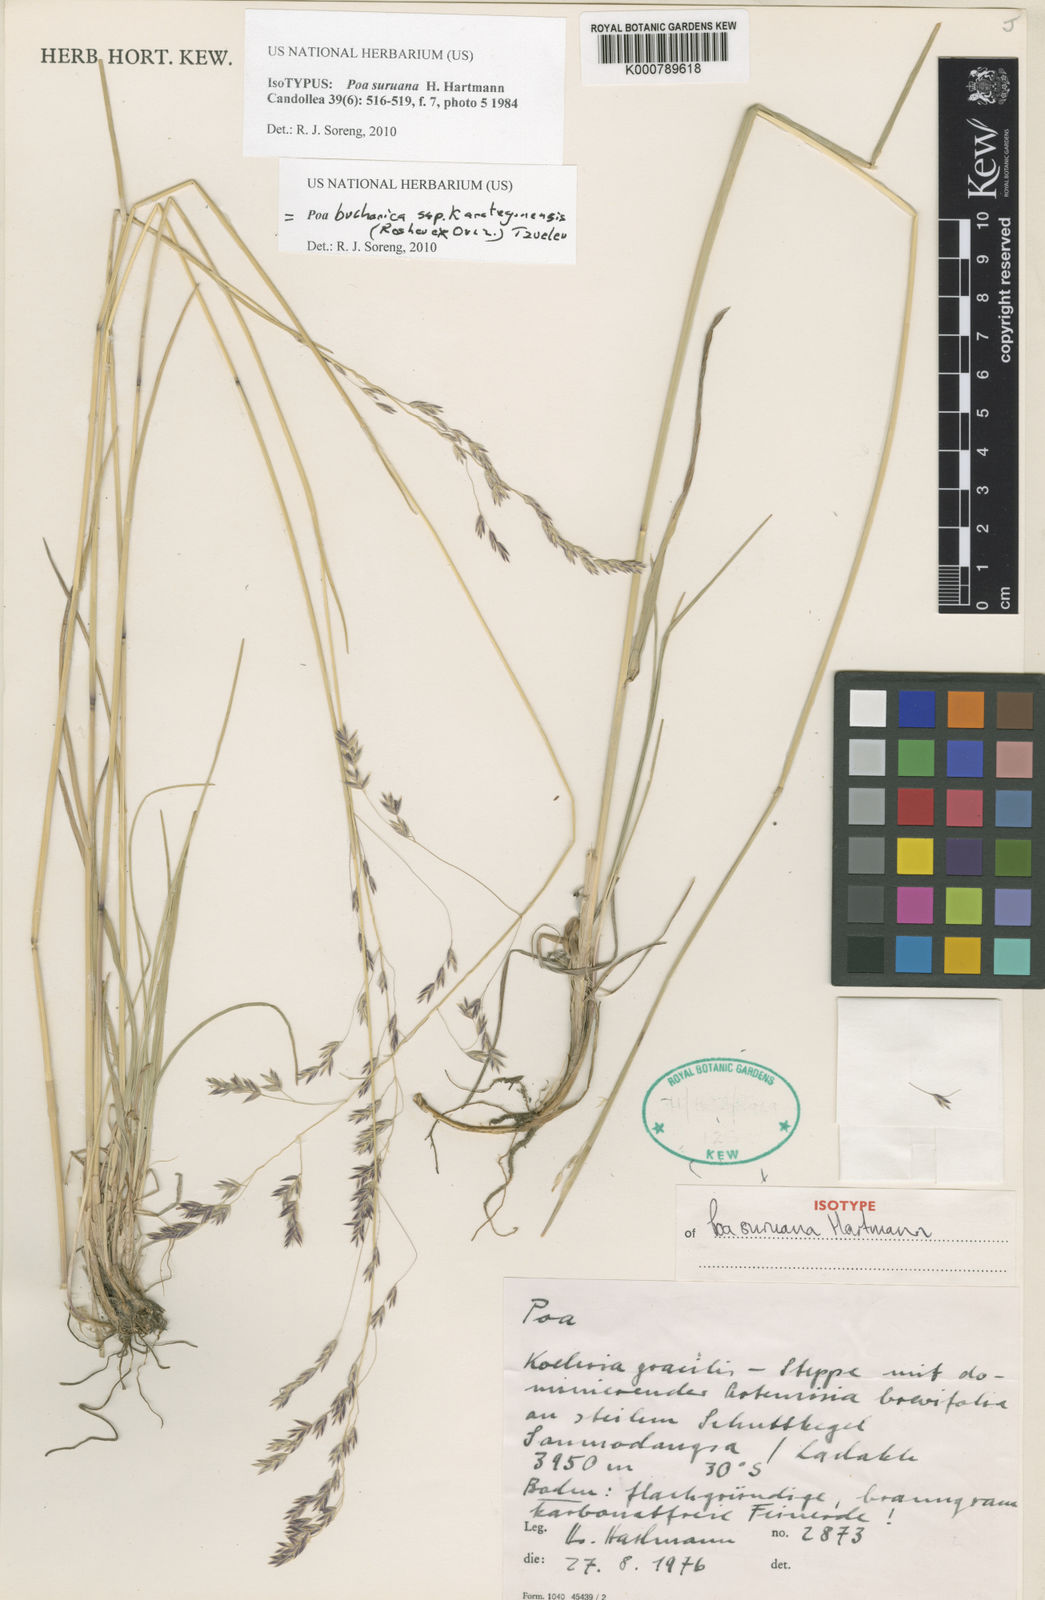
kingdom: Plantae
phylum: Tracheophyta
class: Liliopsida
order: Poales
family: Poaceae
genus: Poa
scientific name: Poa bucharica
